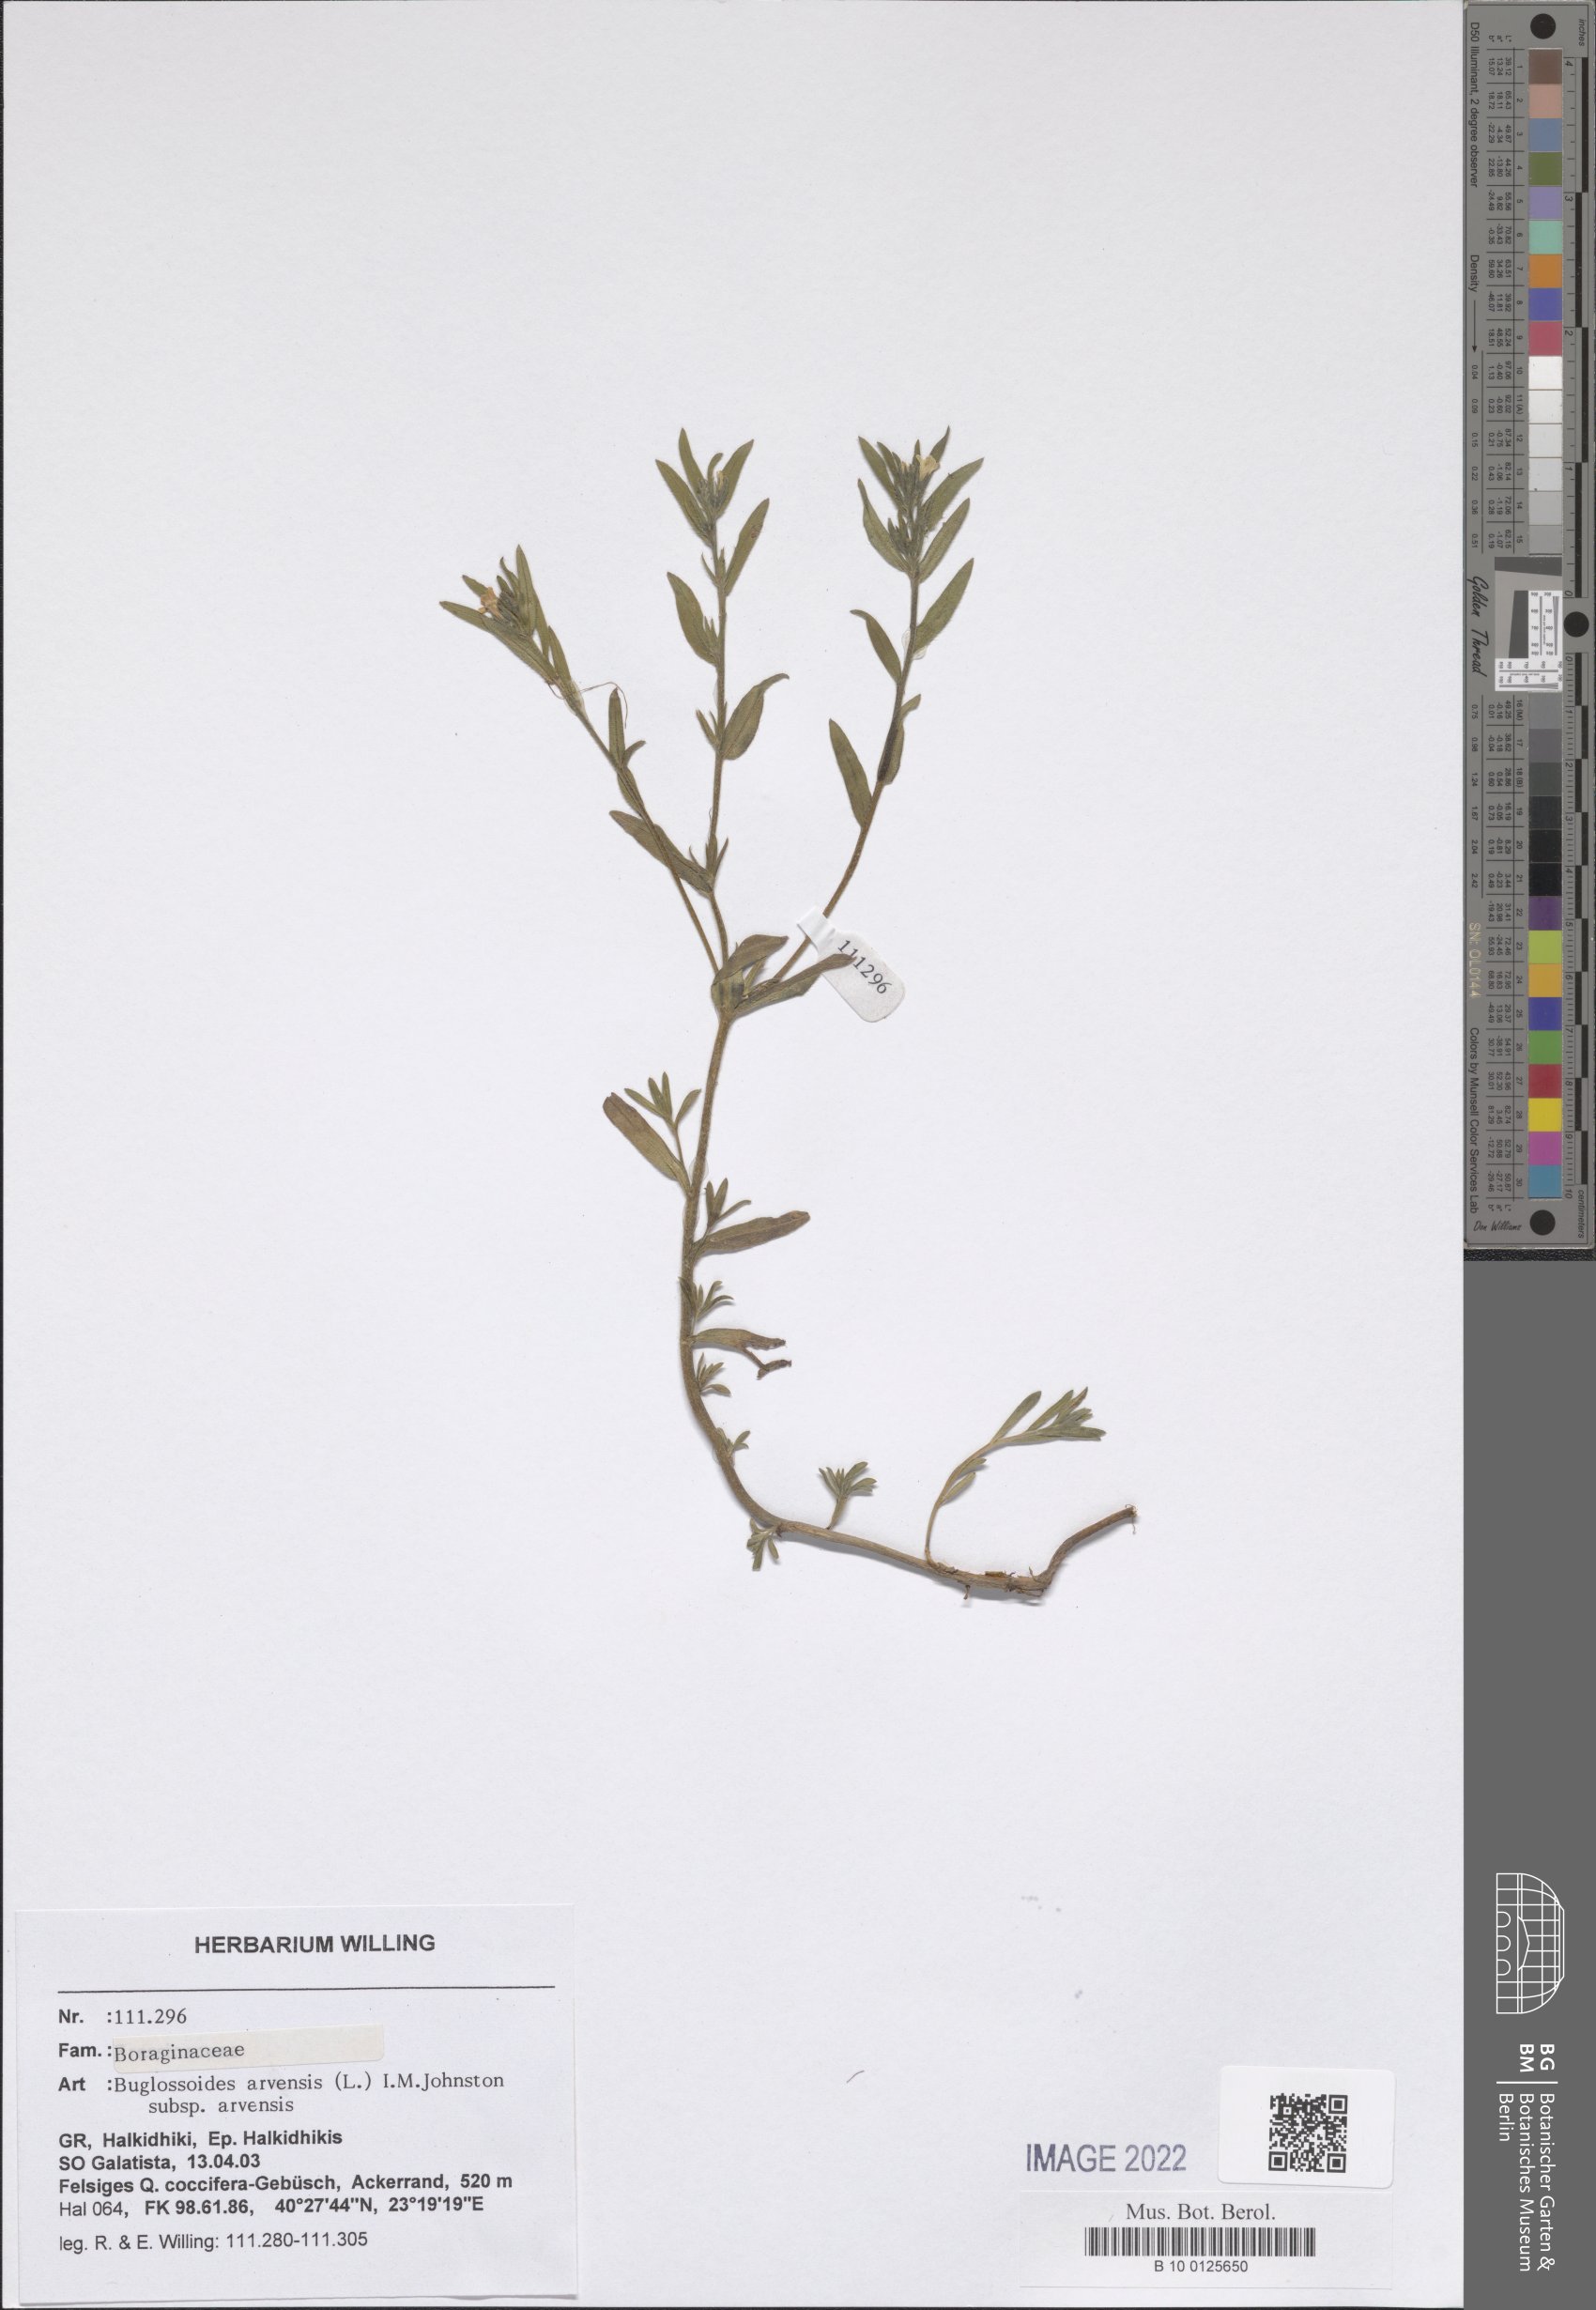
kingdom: Plantae
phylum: Tracheophyta
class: Magnoliopsida
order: Boraginales
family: Boraginaceae
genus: Buglossoides
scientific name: Buglossoides arvensis
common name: Corn gromwell
